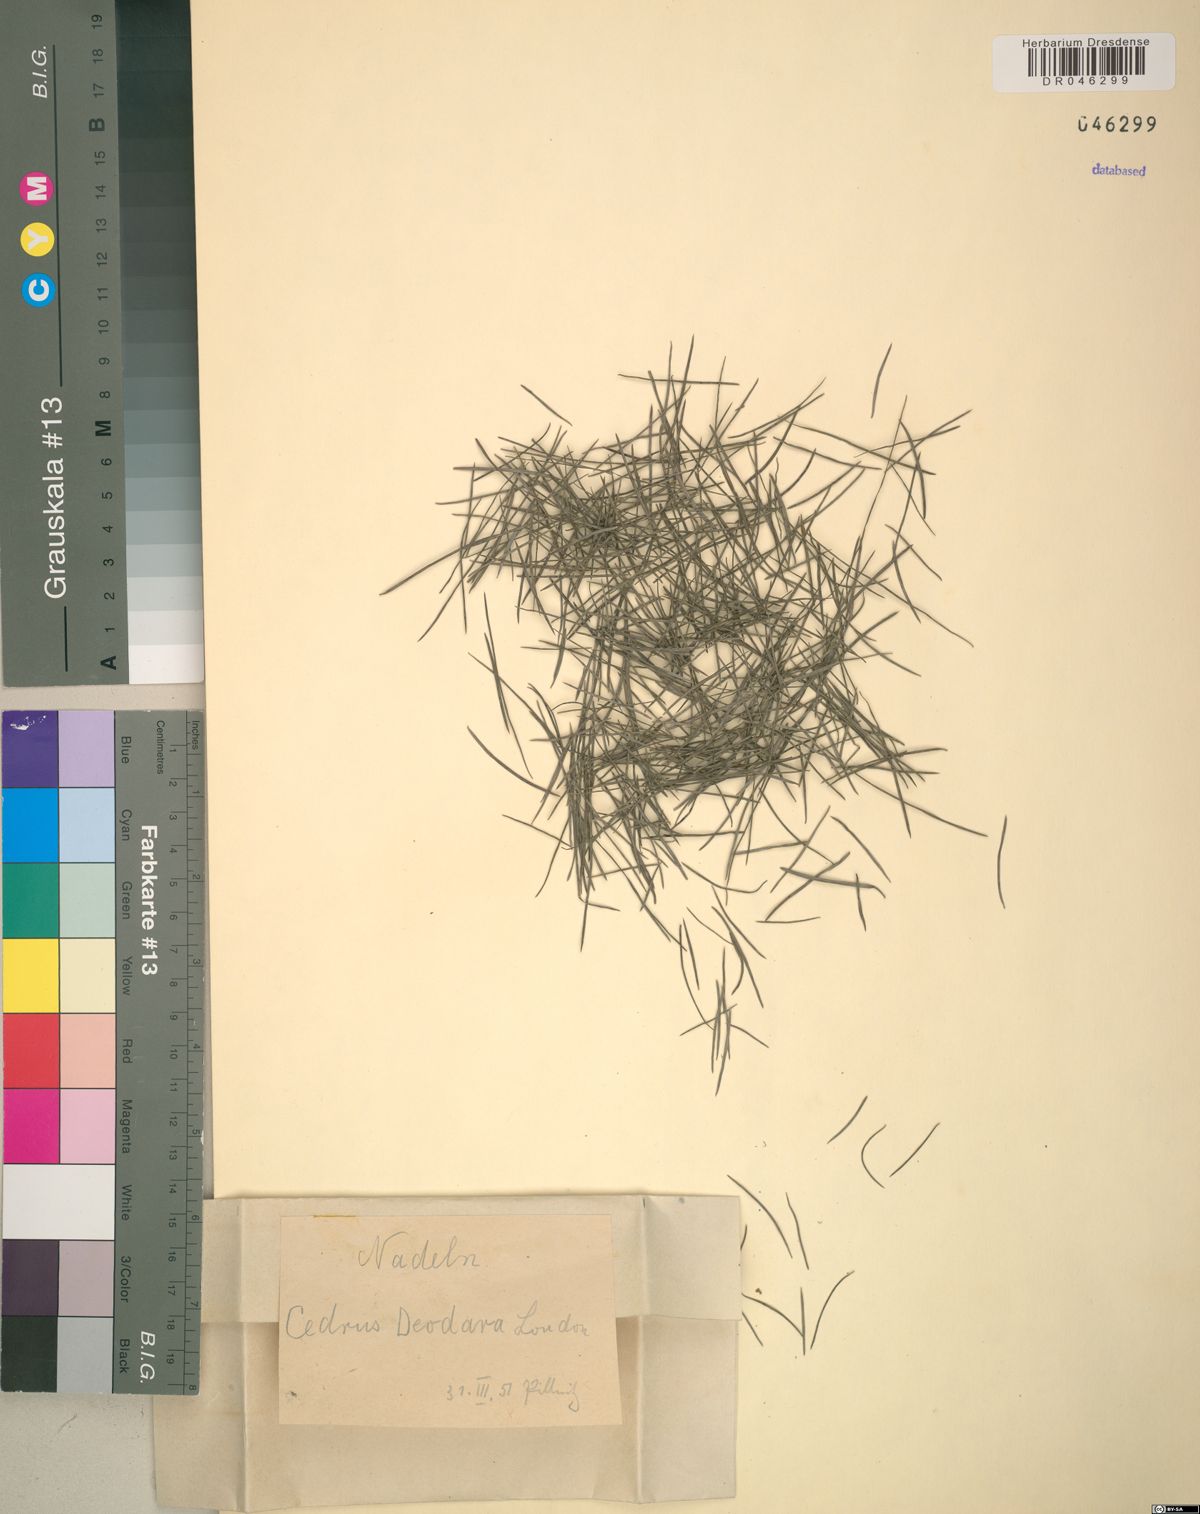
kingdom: Plantae
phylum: Tracheophyta
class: Pinopsida
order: Pinales
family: Pinaceae
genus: Cedrus
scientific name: Cedrus deodara
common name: Deodar
